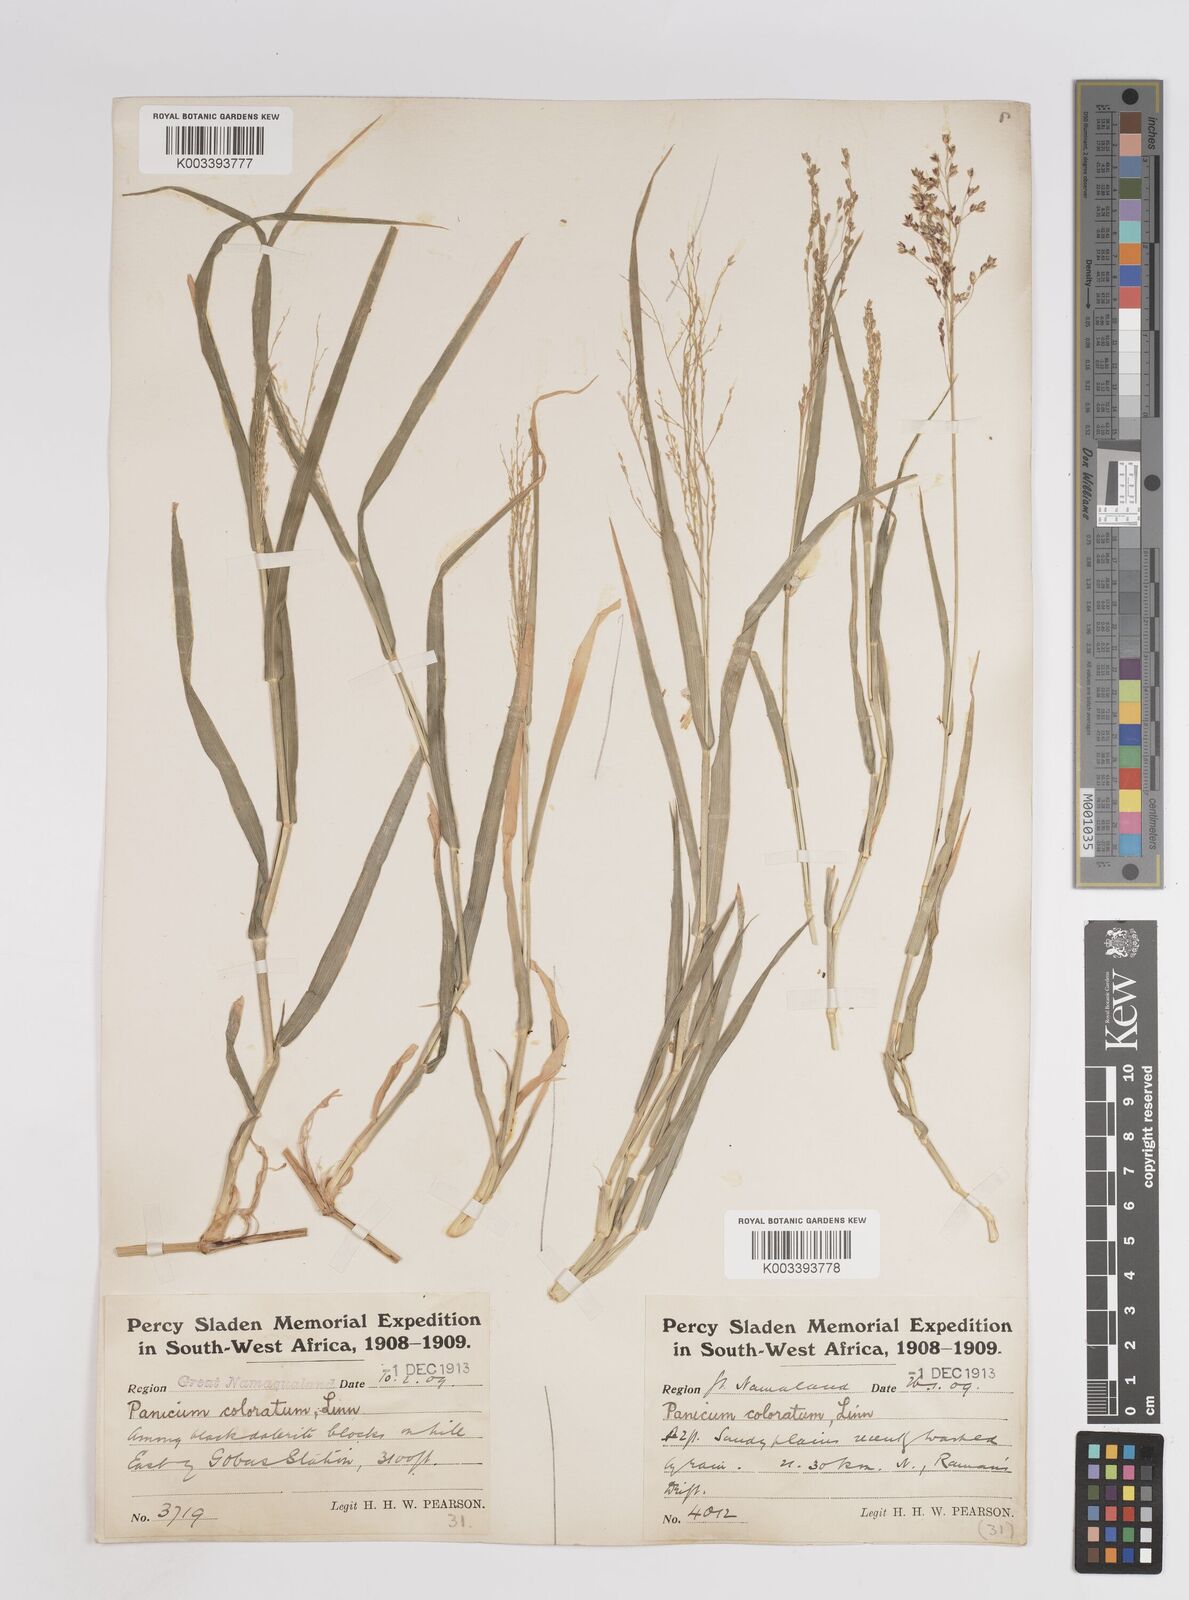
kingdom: Plantae
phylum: Tracheophyta
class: Liliopsida
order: Poales
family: Poaceae
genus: Panicum
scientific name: Panicum arbusculum
